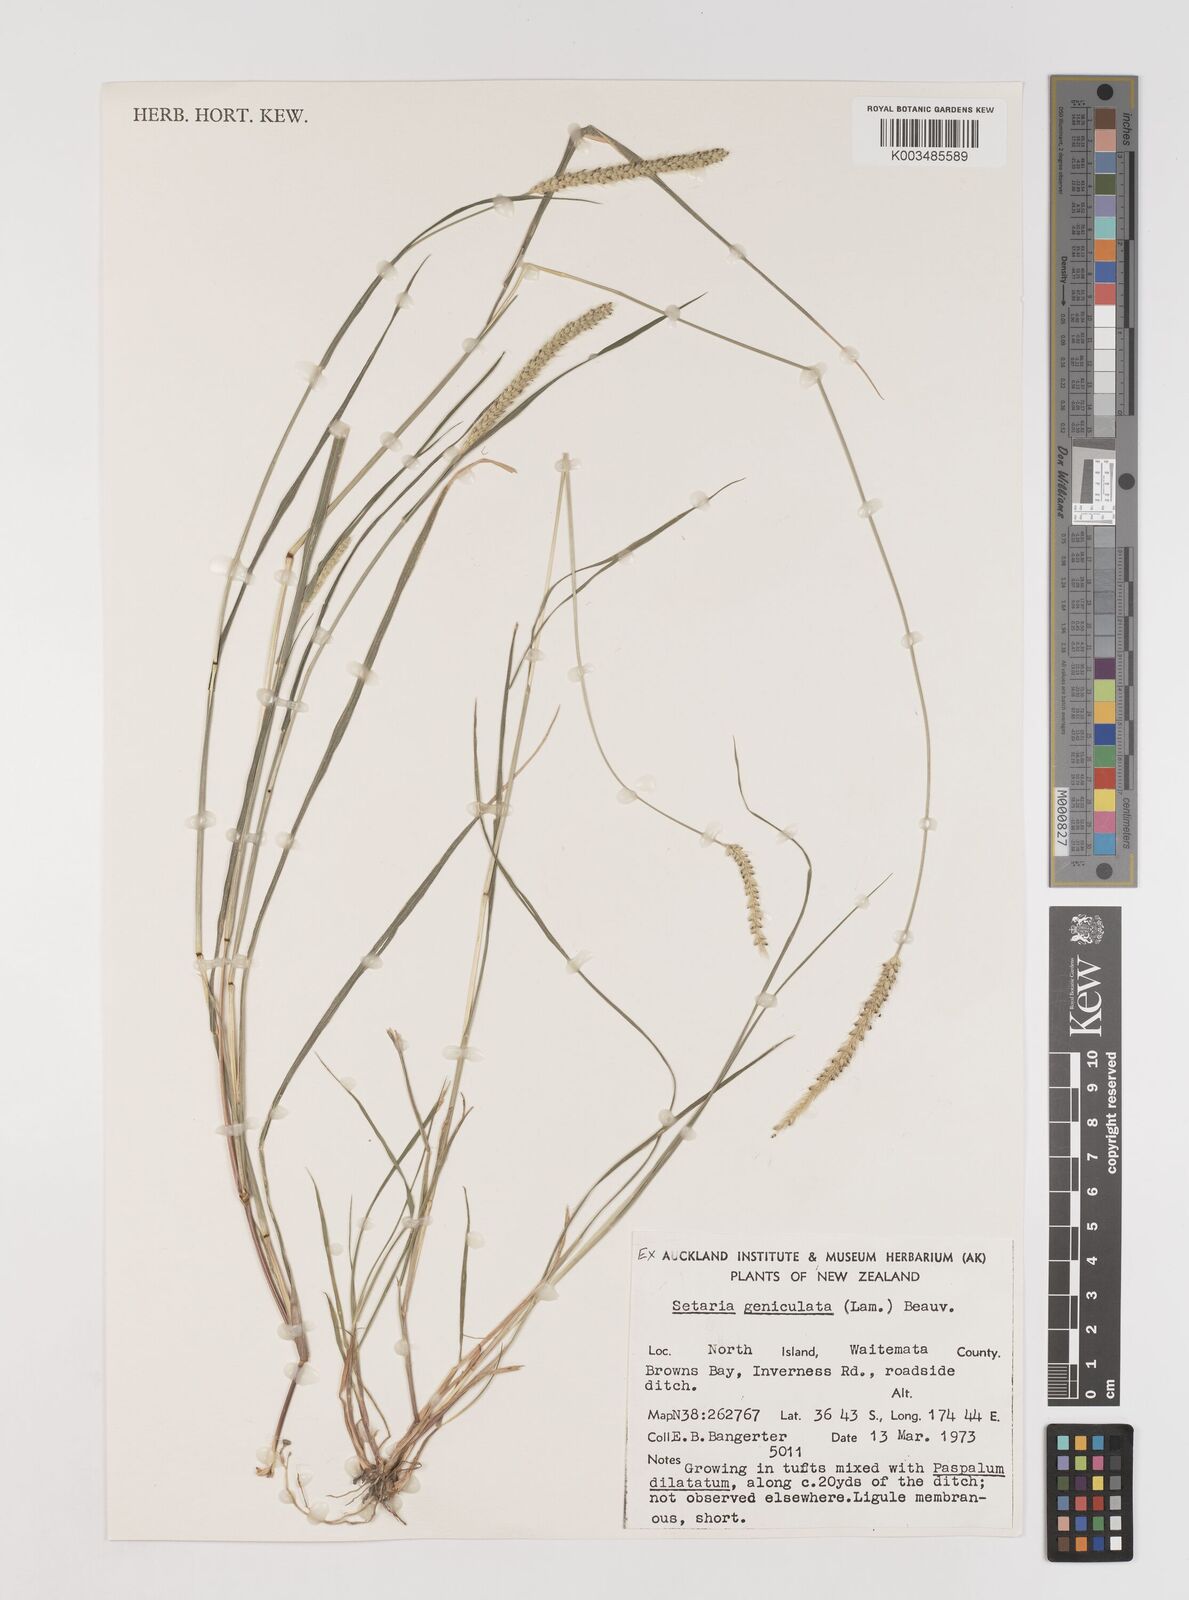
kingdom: Plantae
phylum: Tracheophyta
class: Liliopsida
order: Poales
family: Poaceae
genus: Setaria
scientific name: Setaria parviflora
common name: Knotroot bristle-grass
